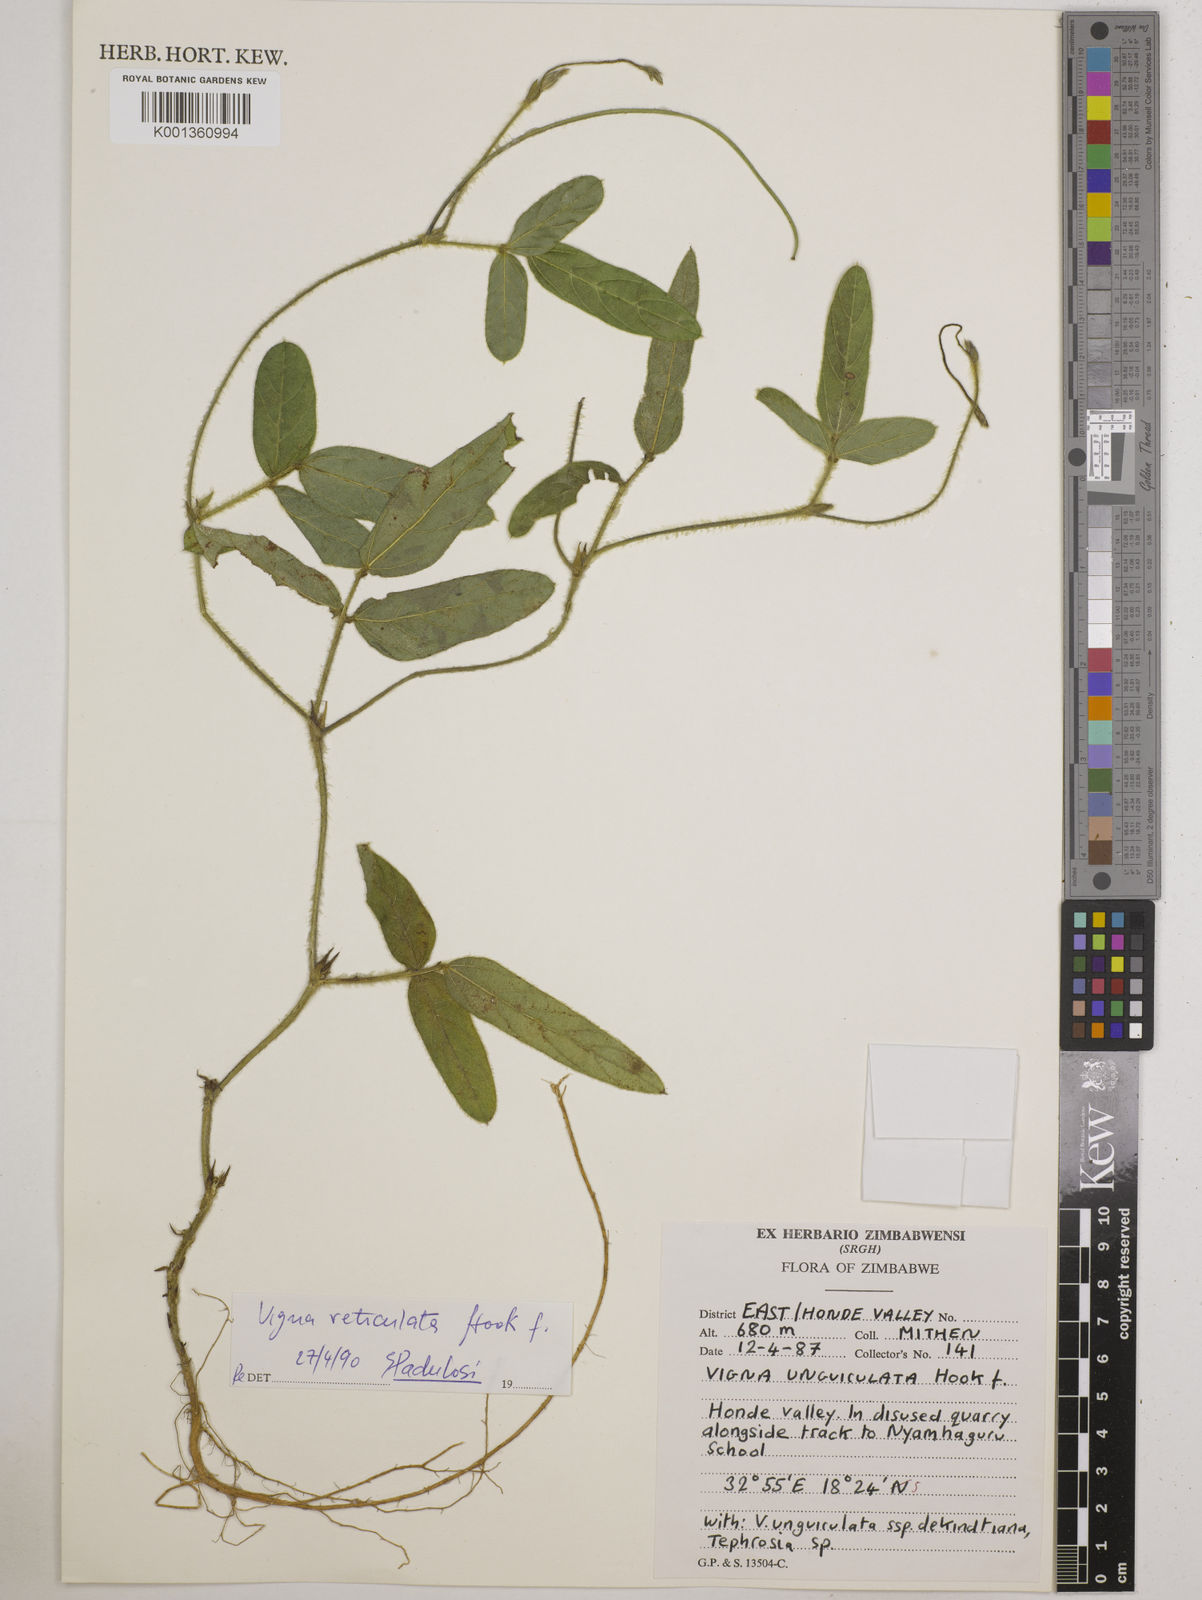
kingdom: Plantae
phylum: Tracheophyta
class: Magnoliopsida
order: Fabales
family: Fabaceae
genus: Vigna
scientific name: Vigna reticulata
